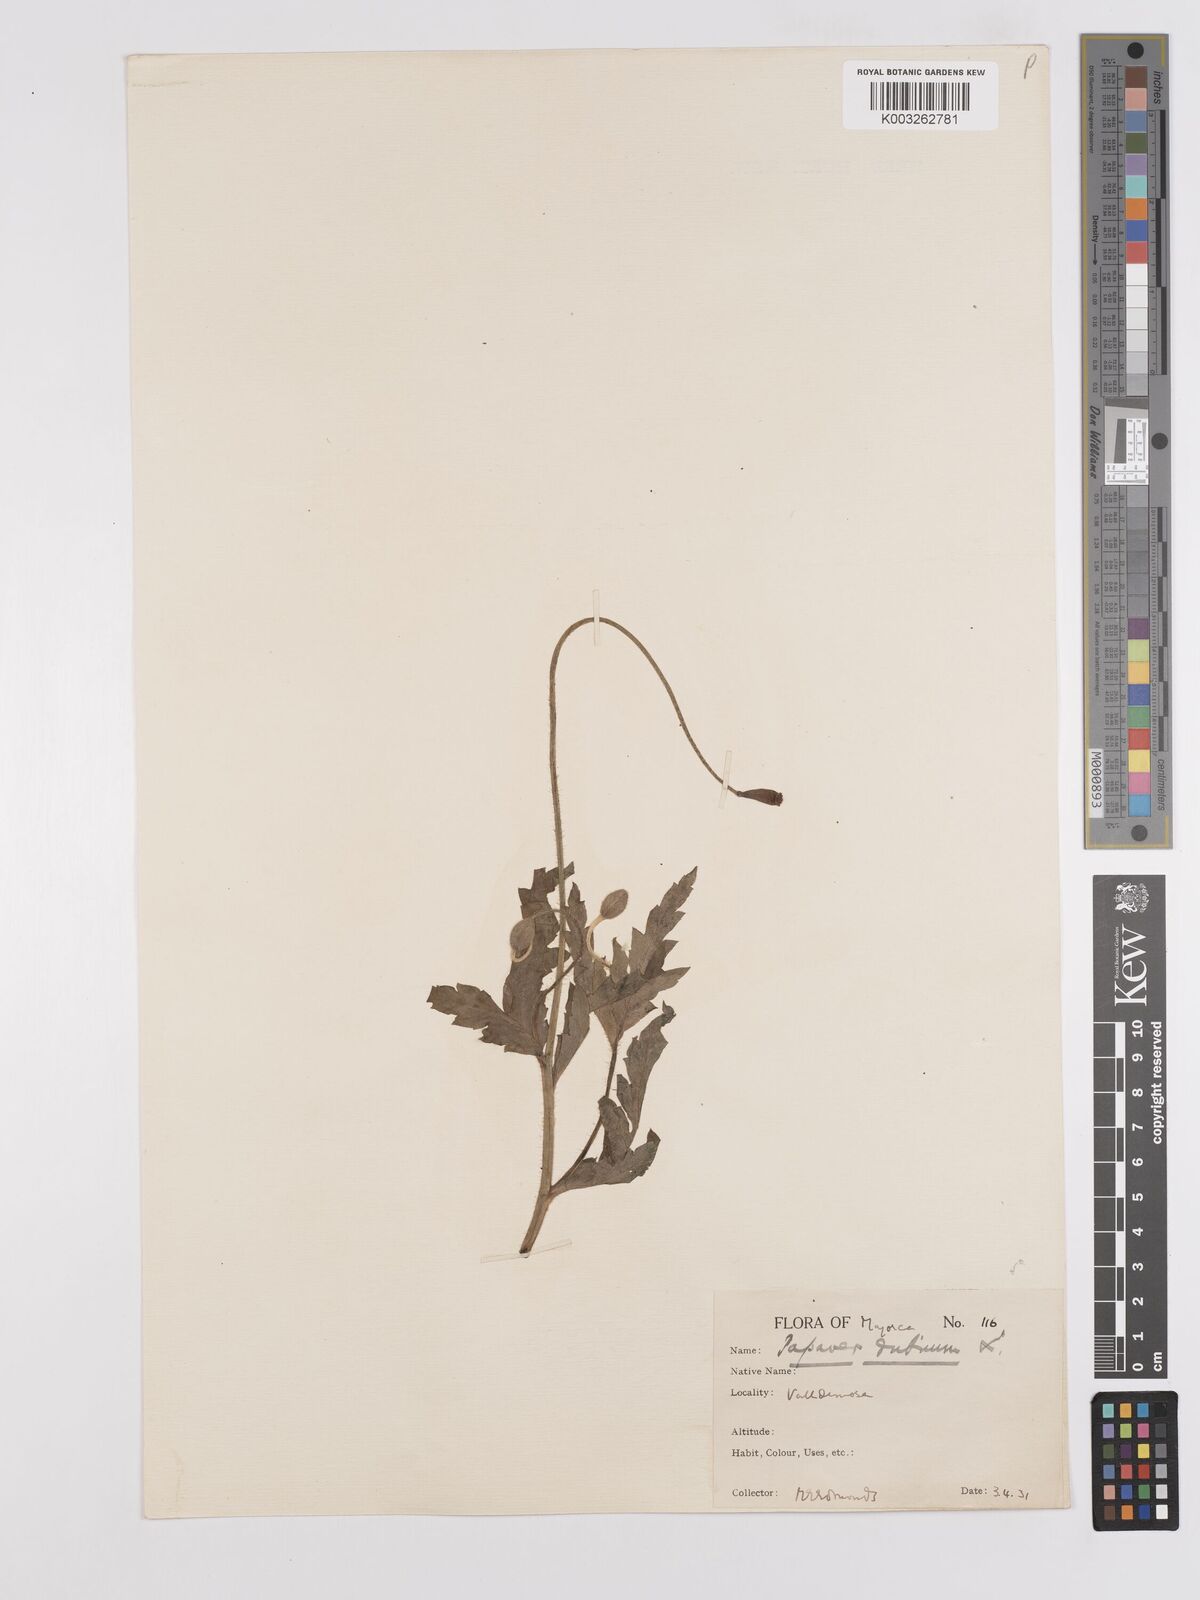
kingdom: Plantae
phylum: Tracheophyta
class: Magnoliopsida
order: Ranunculales
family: Papaveraceae
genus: Papaver
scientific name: Papaver pinnatifidum
